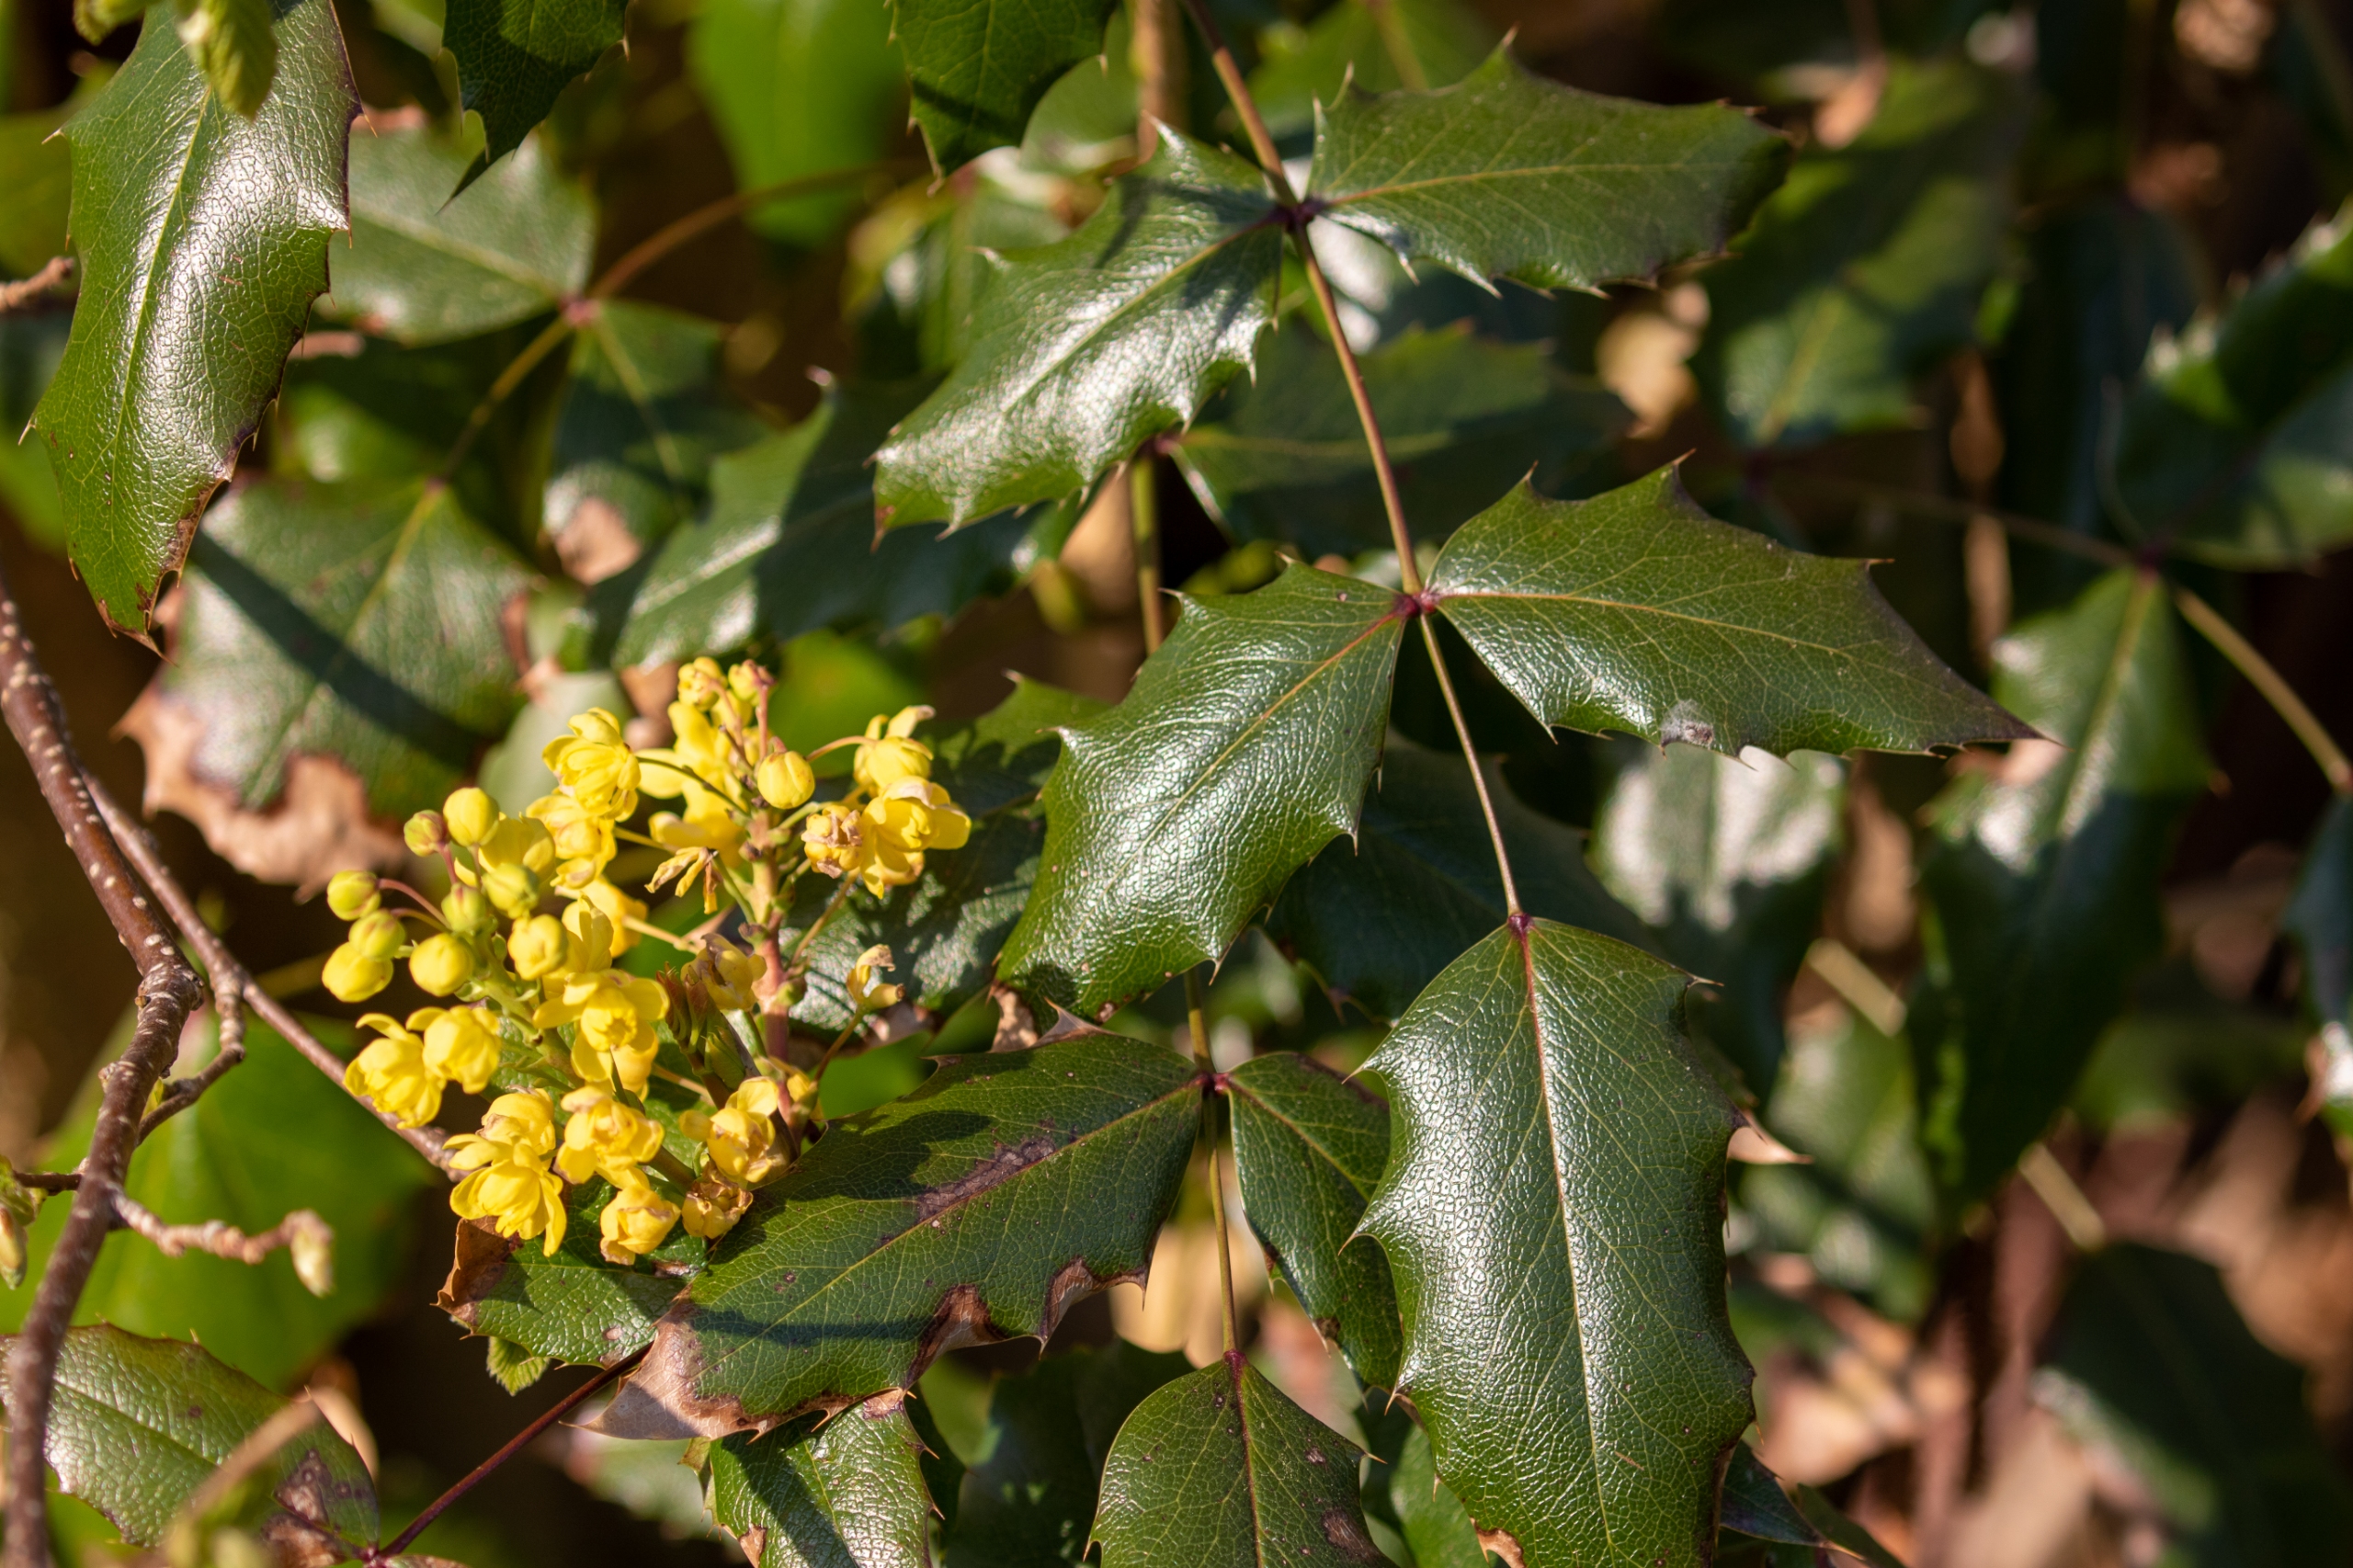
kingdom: Plantae
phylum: Tracheophyta
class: Magnoliopsida
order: Ranunculales
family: Berberidaceae
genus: Mahonia
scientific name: Mahonia aquifolium
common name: Almindelig mahonie
